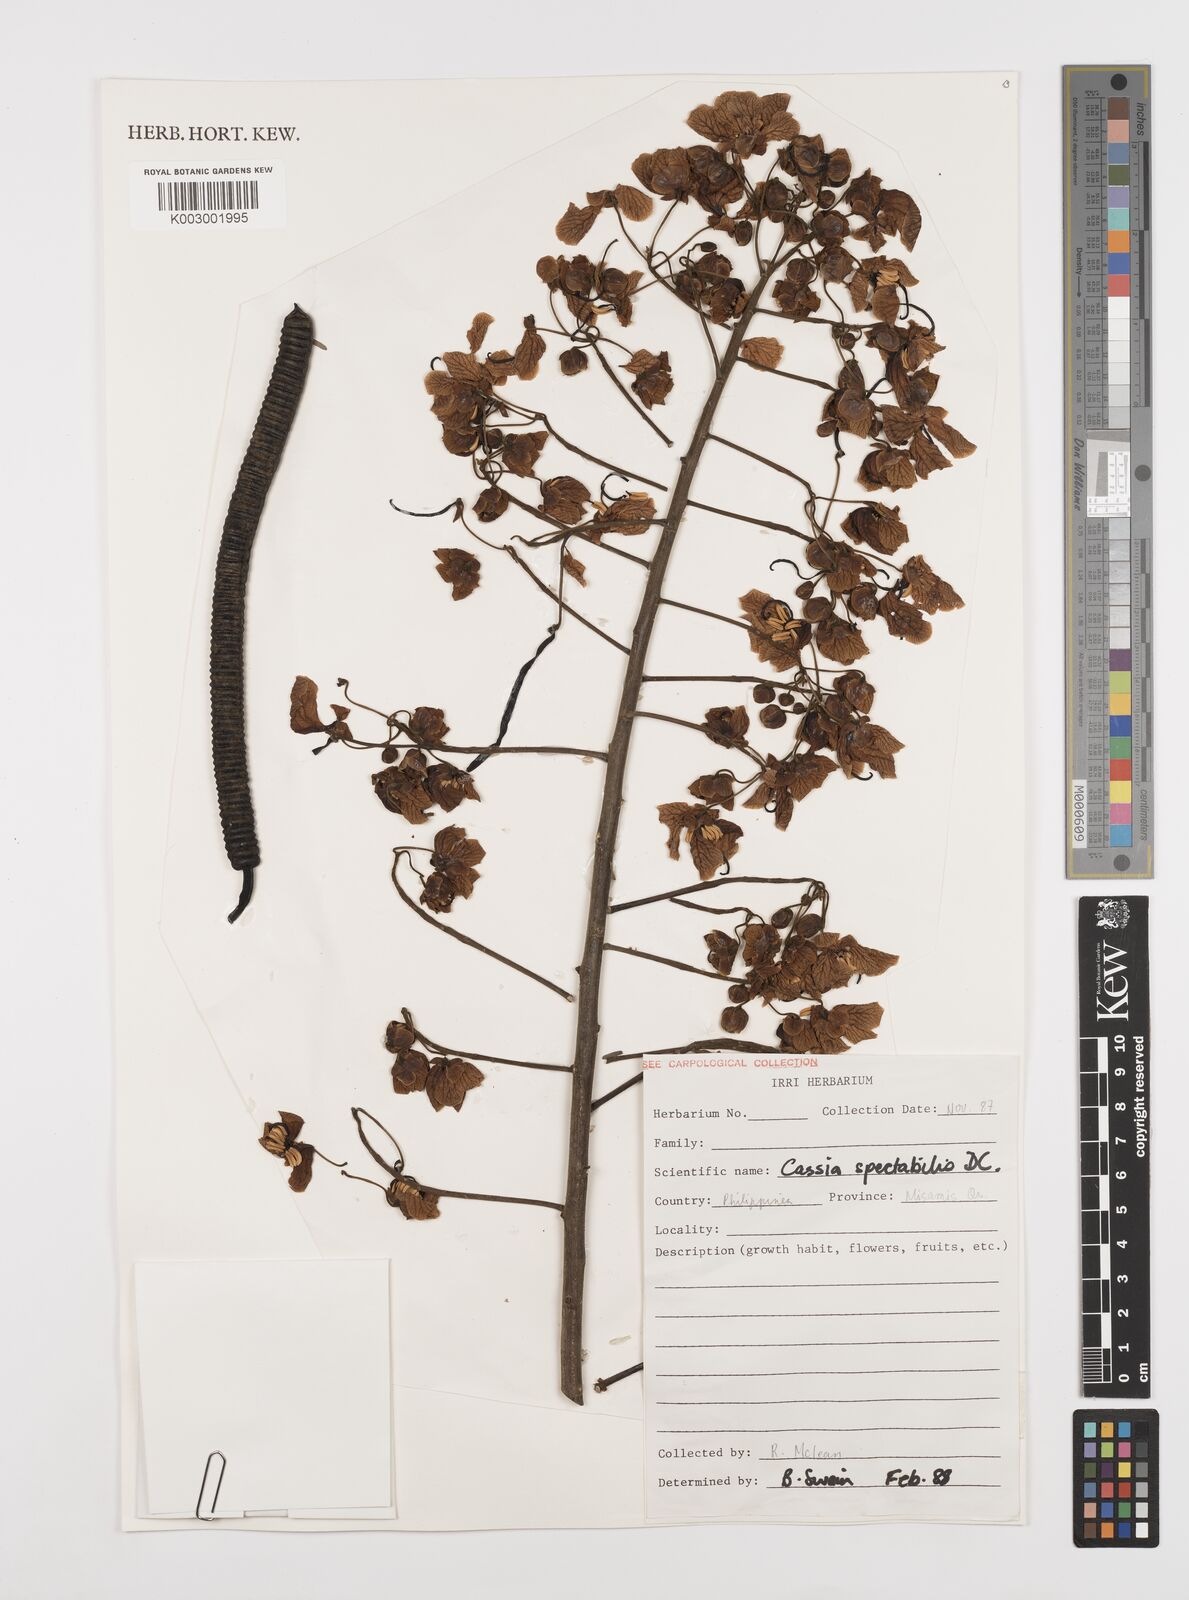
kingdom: Plantae
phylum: Tracheophyta
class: Magnoliopsida
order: Fabales
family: Fabaceae
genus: Senna
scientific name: Senna spectabilis
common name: Casia amarilla
